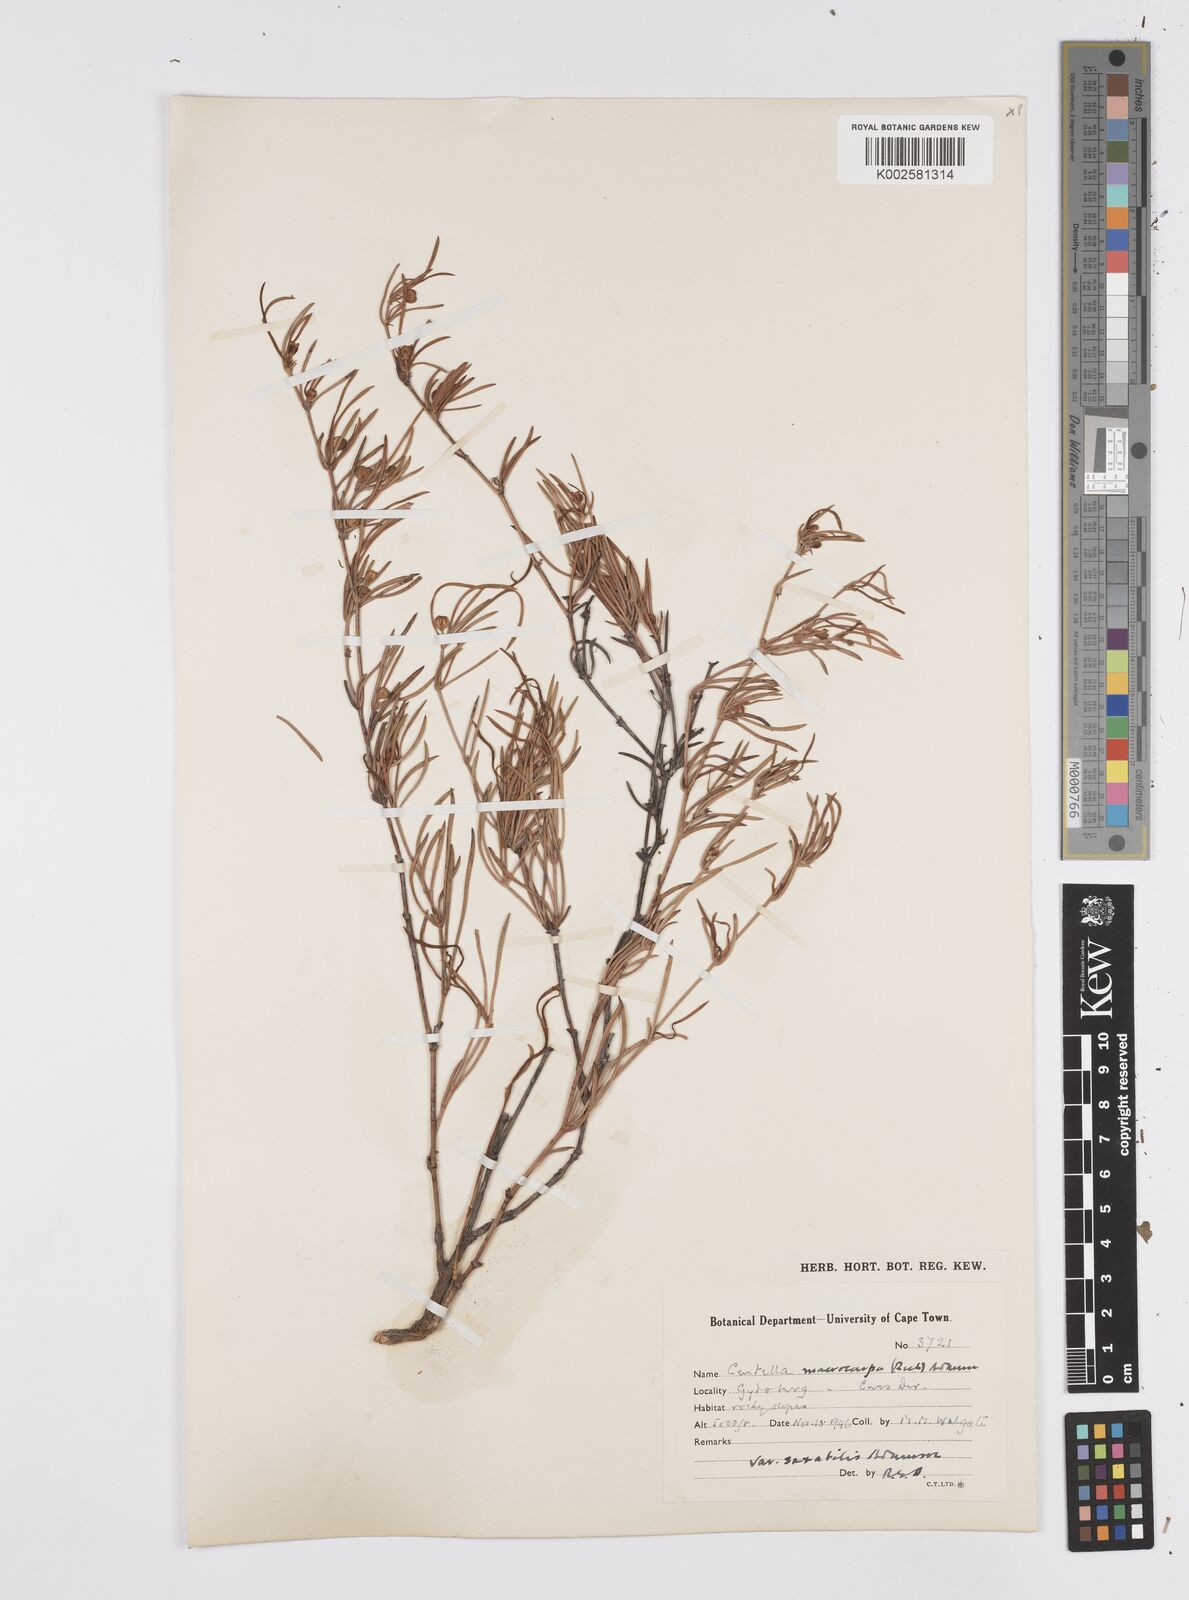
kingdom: Plantae
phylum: Tracheophyta
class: Magnoliopsida
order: Apiales
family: Apiaceae
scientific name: Apiaceae
